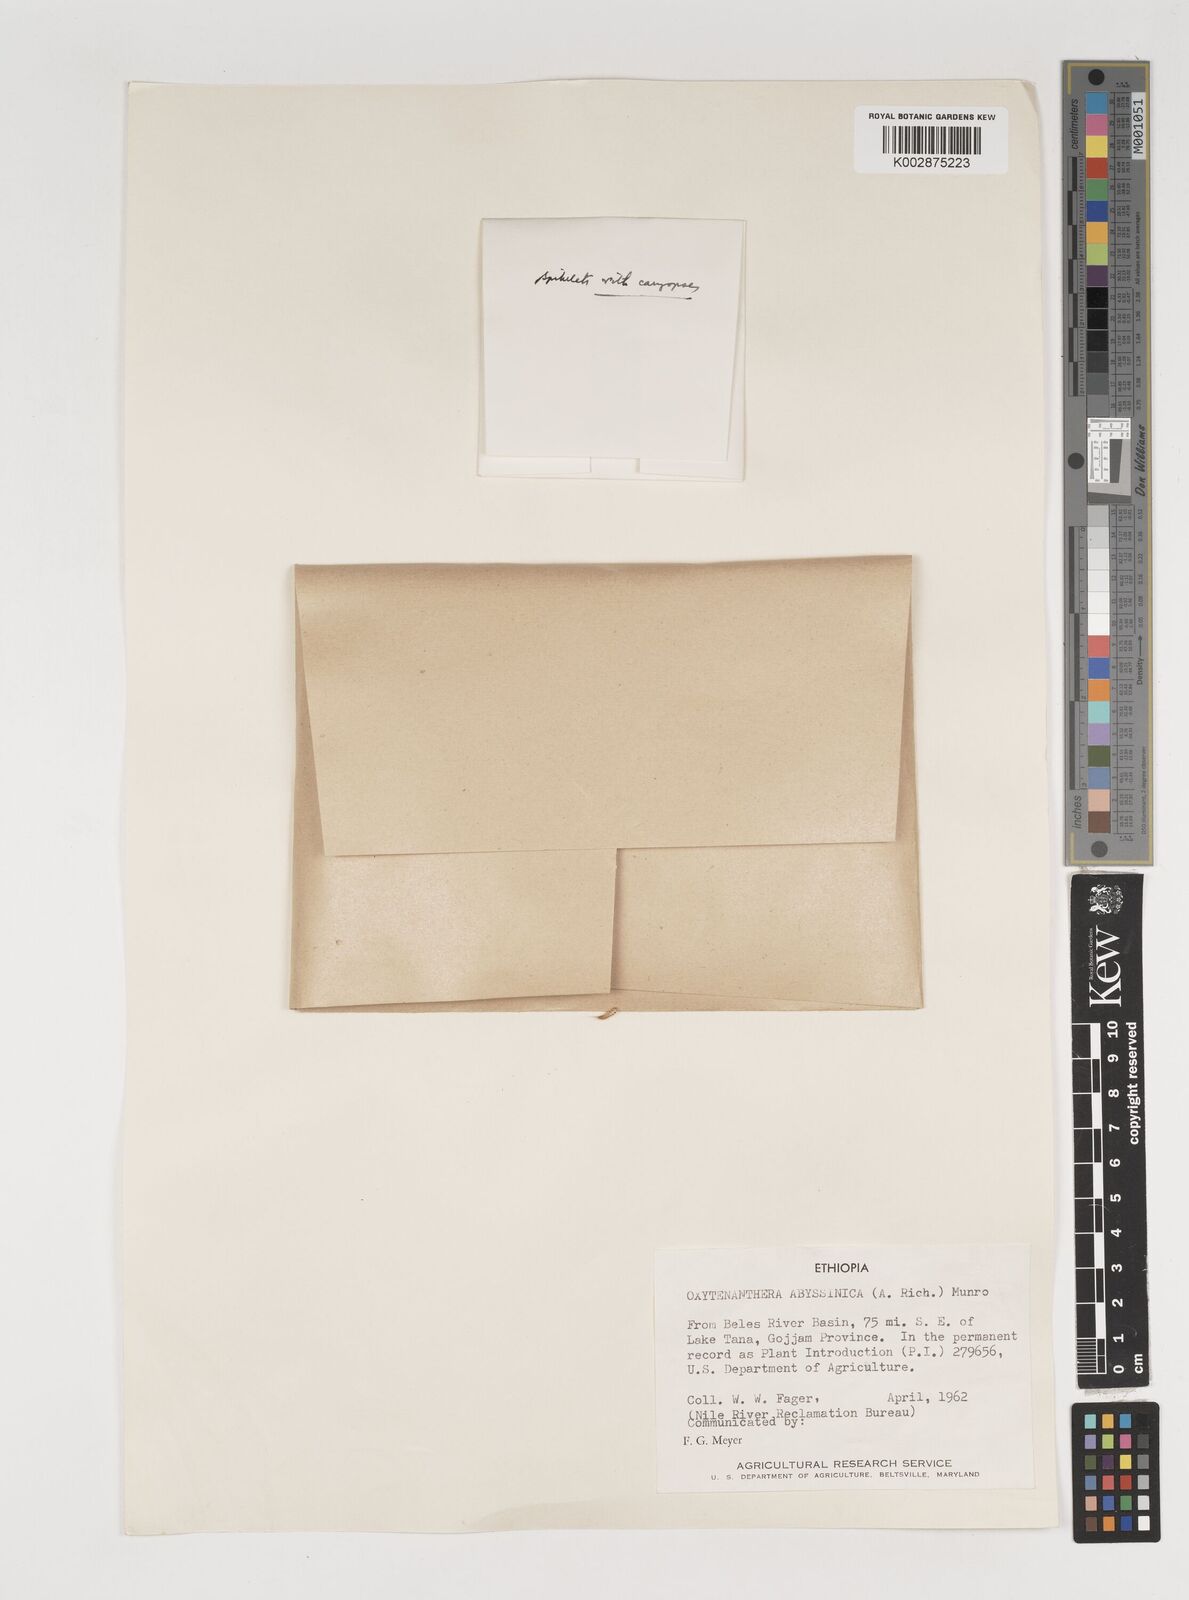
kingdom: Plantae
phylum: Tracheophyta
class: Liliopsida
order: Poales
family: Poaceae
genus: Oxytenanthera
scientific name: Oxytenanthera abyssinica
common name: Wine bamboo
